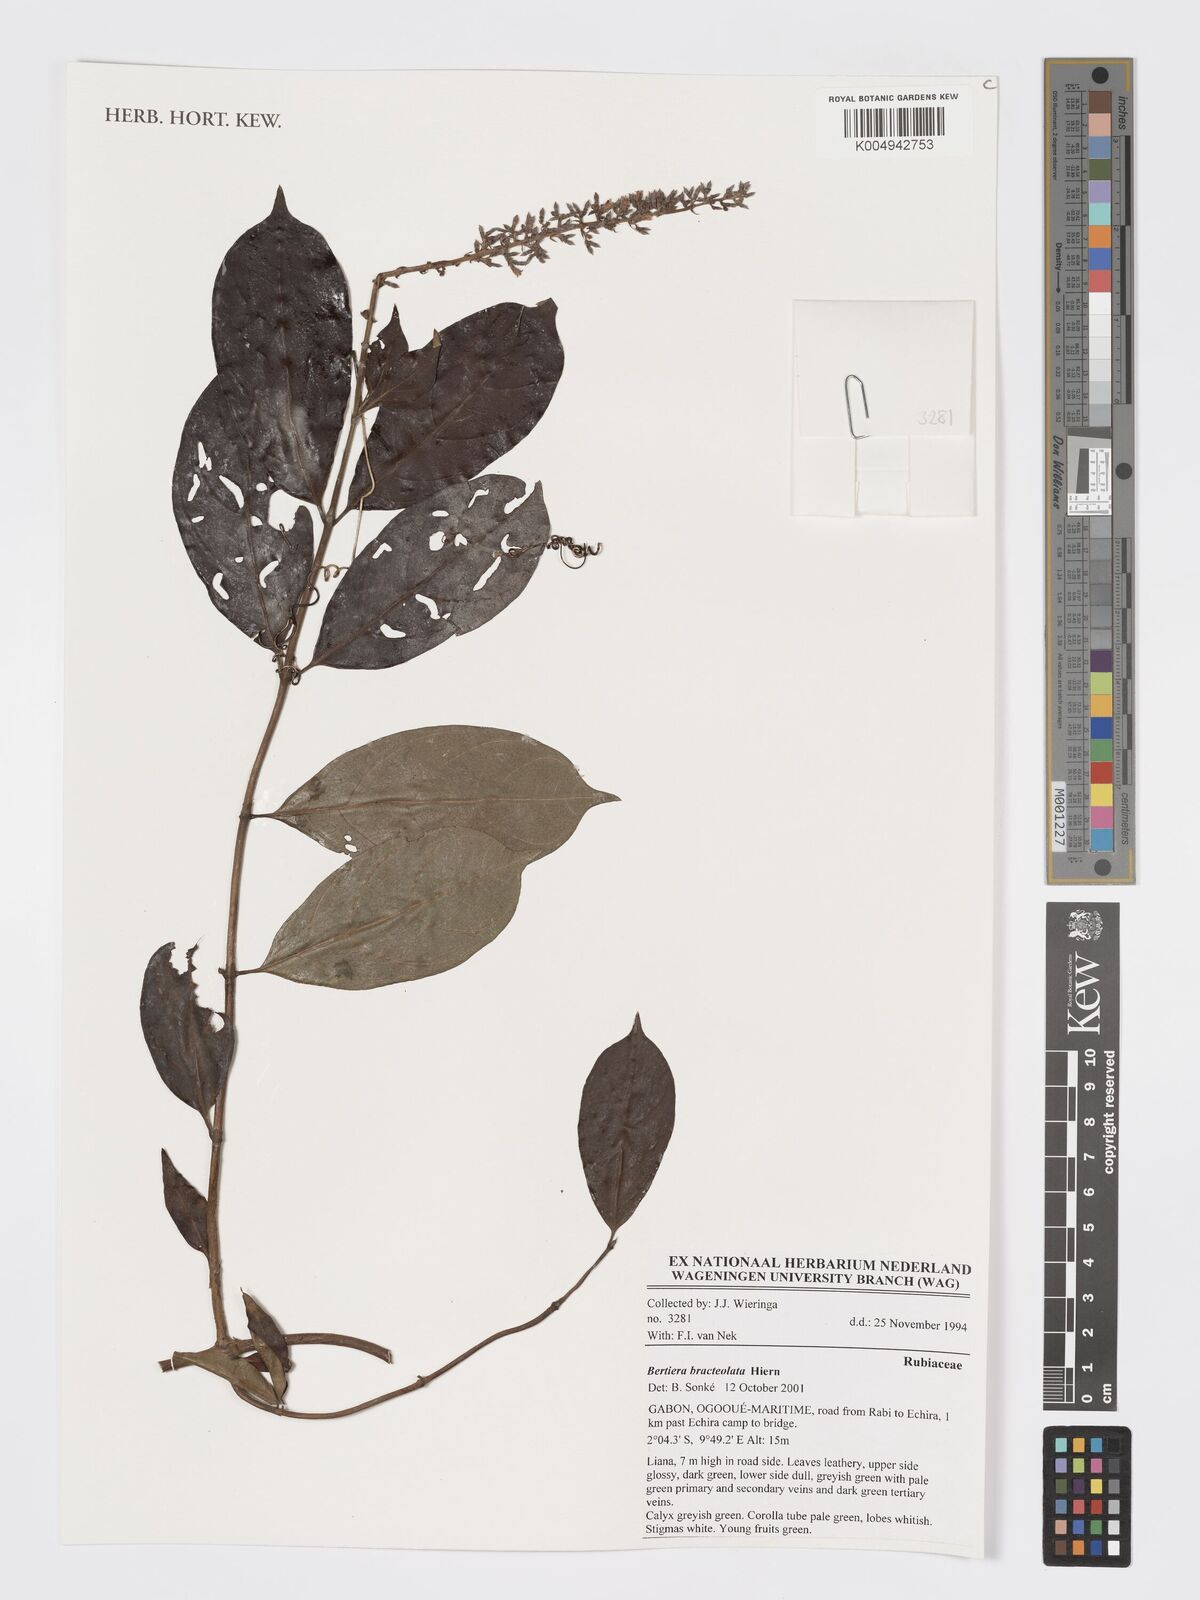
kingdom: Plantae
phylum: Tracheophyta
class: Magnoliopsida
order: Gentianales
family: Rubiaceae
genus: Bertiera
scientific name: Bertiera bracteolata
